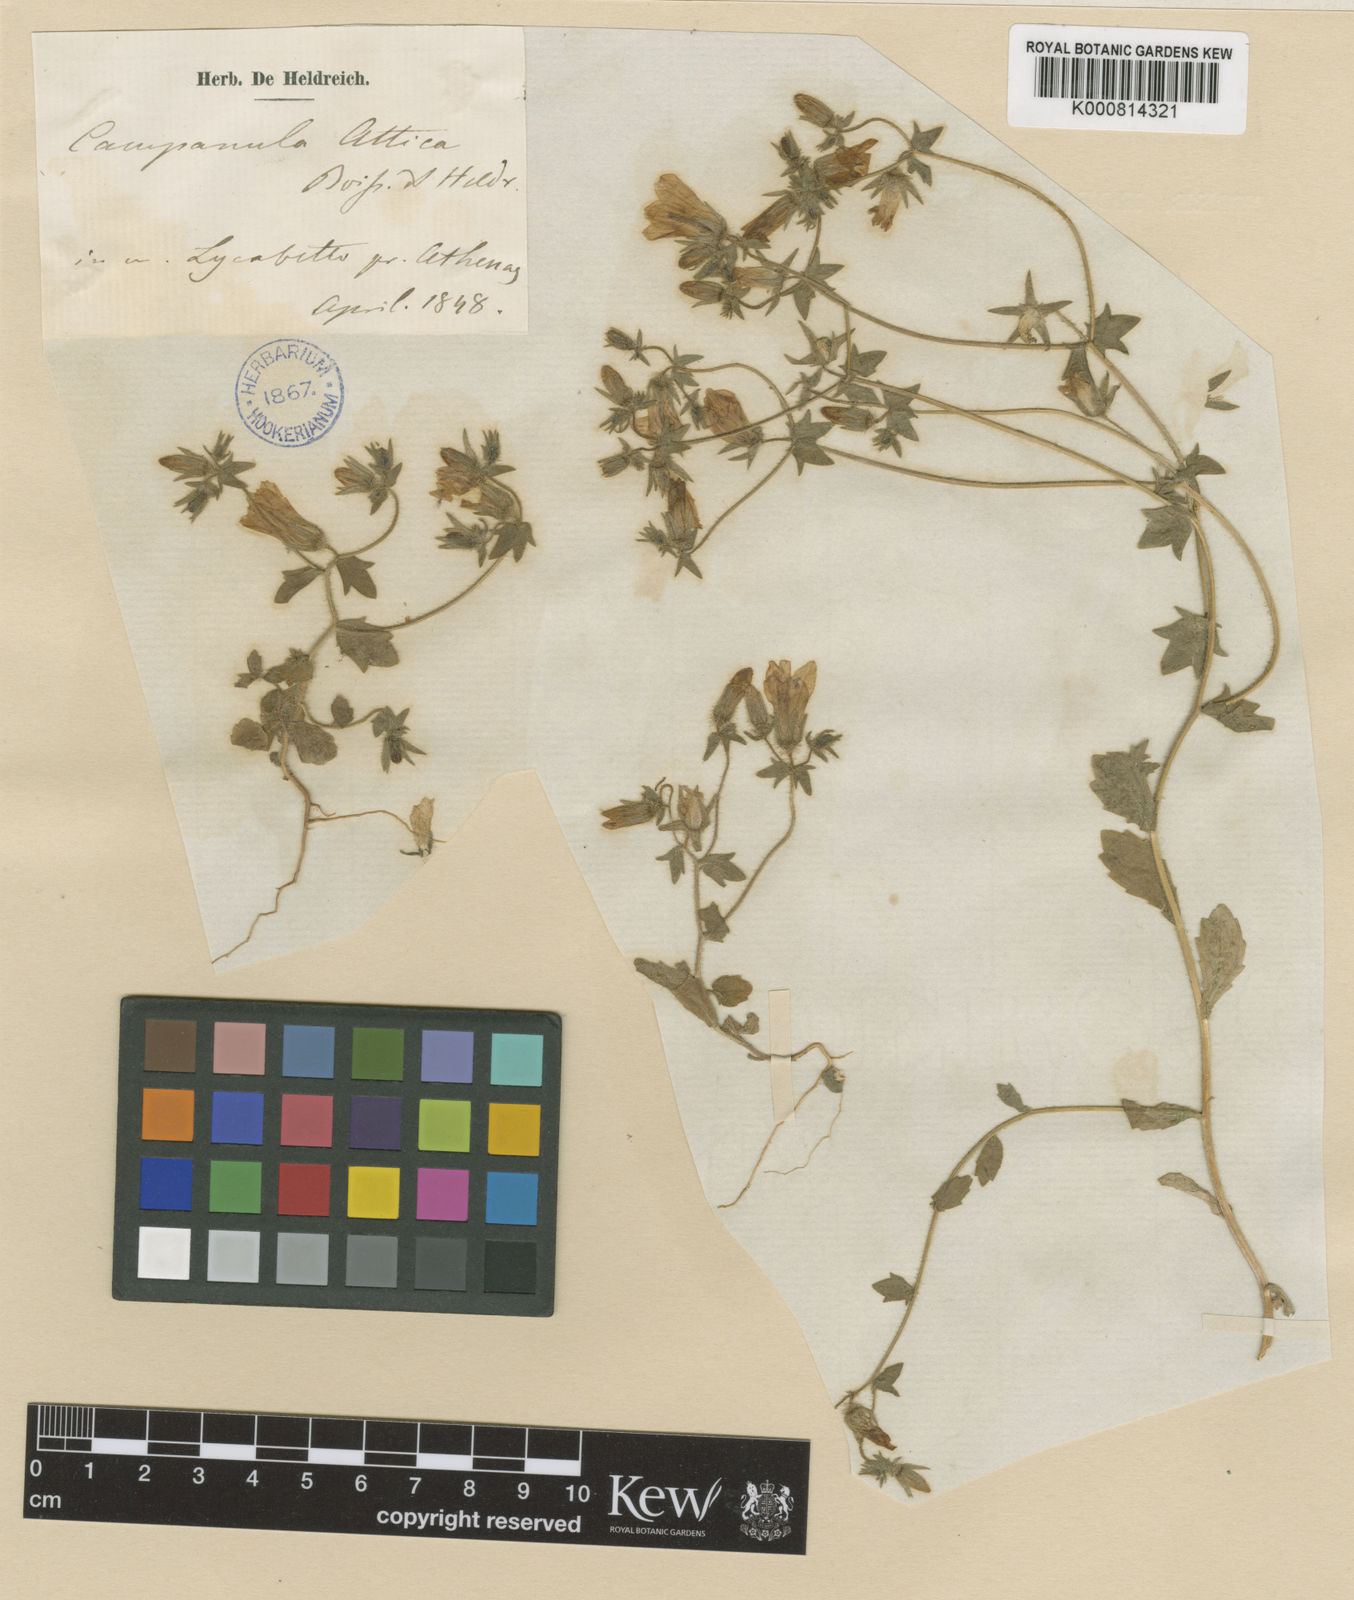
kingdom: Plantae
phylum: Tracheophyta
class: Magnoliopsida
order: Asterales
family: Campanulaceae
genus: Campanula
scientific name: Campanula
